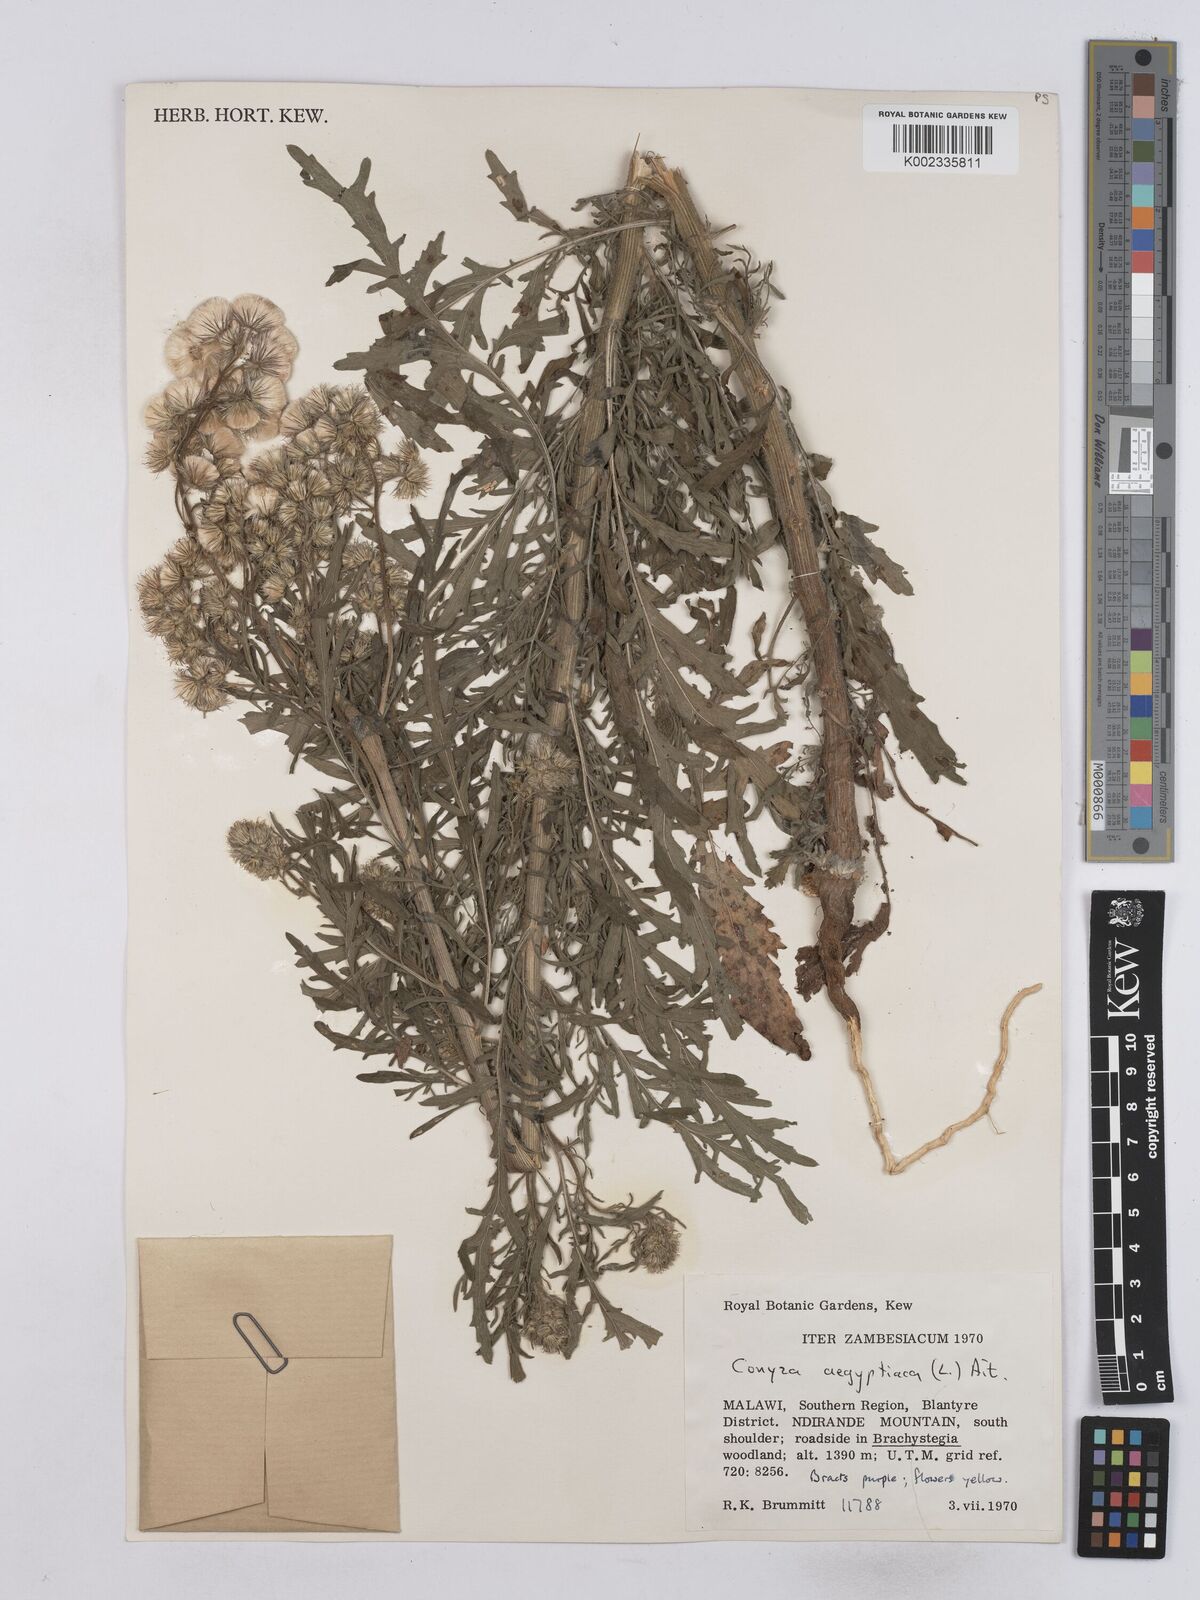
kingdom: Plantae
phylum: Tracheophyta
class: Magnoliopsida
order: Asterales
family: Asteraceae
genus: Nidorella
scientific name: Nidorella aegyptiaca
